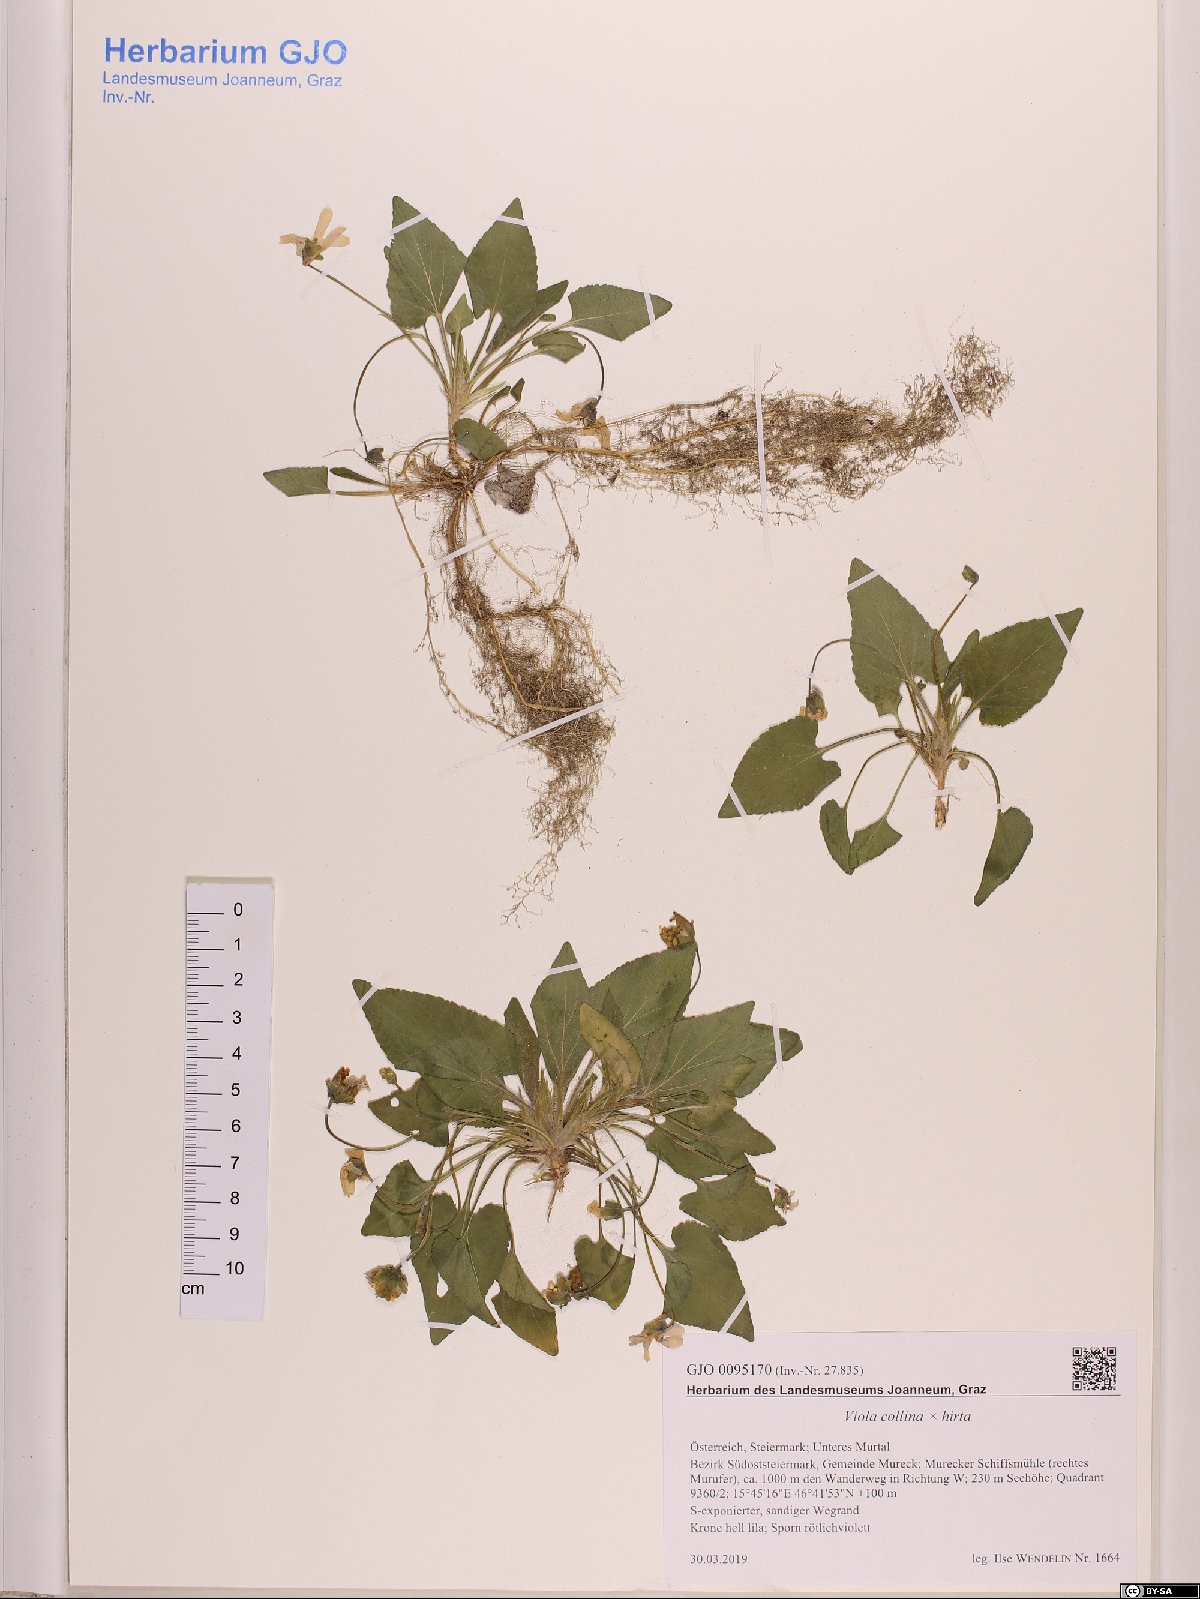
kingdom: Plantae
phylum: Tracheophyta
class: Magnoliopsida
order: Malpighiales
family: Violaceae
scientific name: Violaceae
